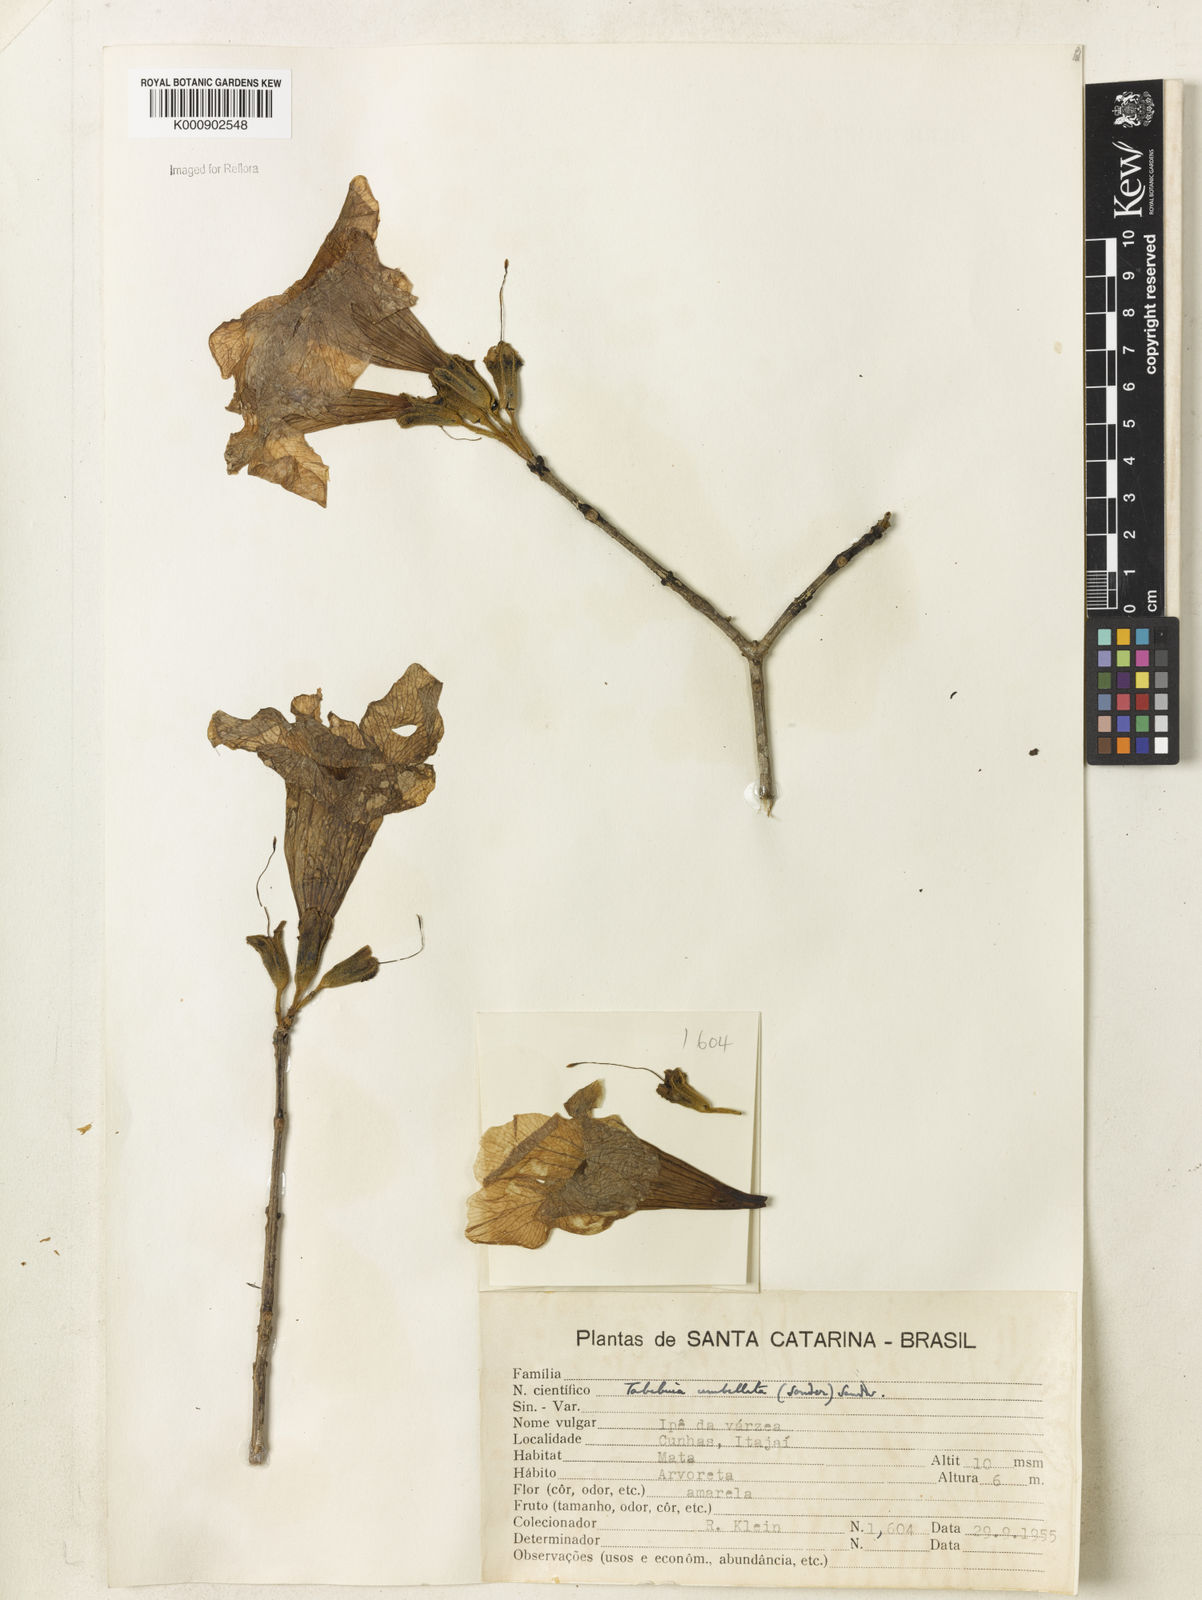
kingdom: Plantae
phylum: Tracheophyta
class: Magnoliopsida
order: Lamiales
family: Bignoniaceae
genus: Handroanthus
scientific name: Handroanthus umbellatus
